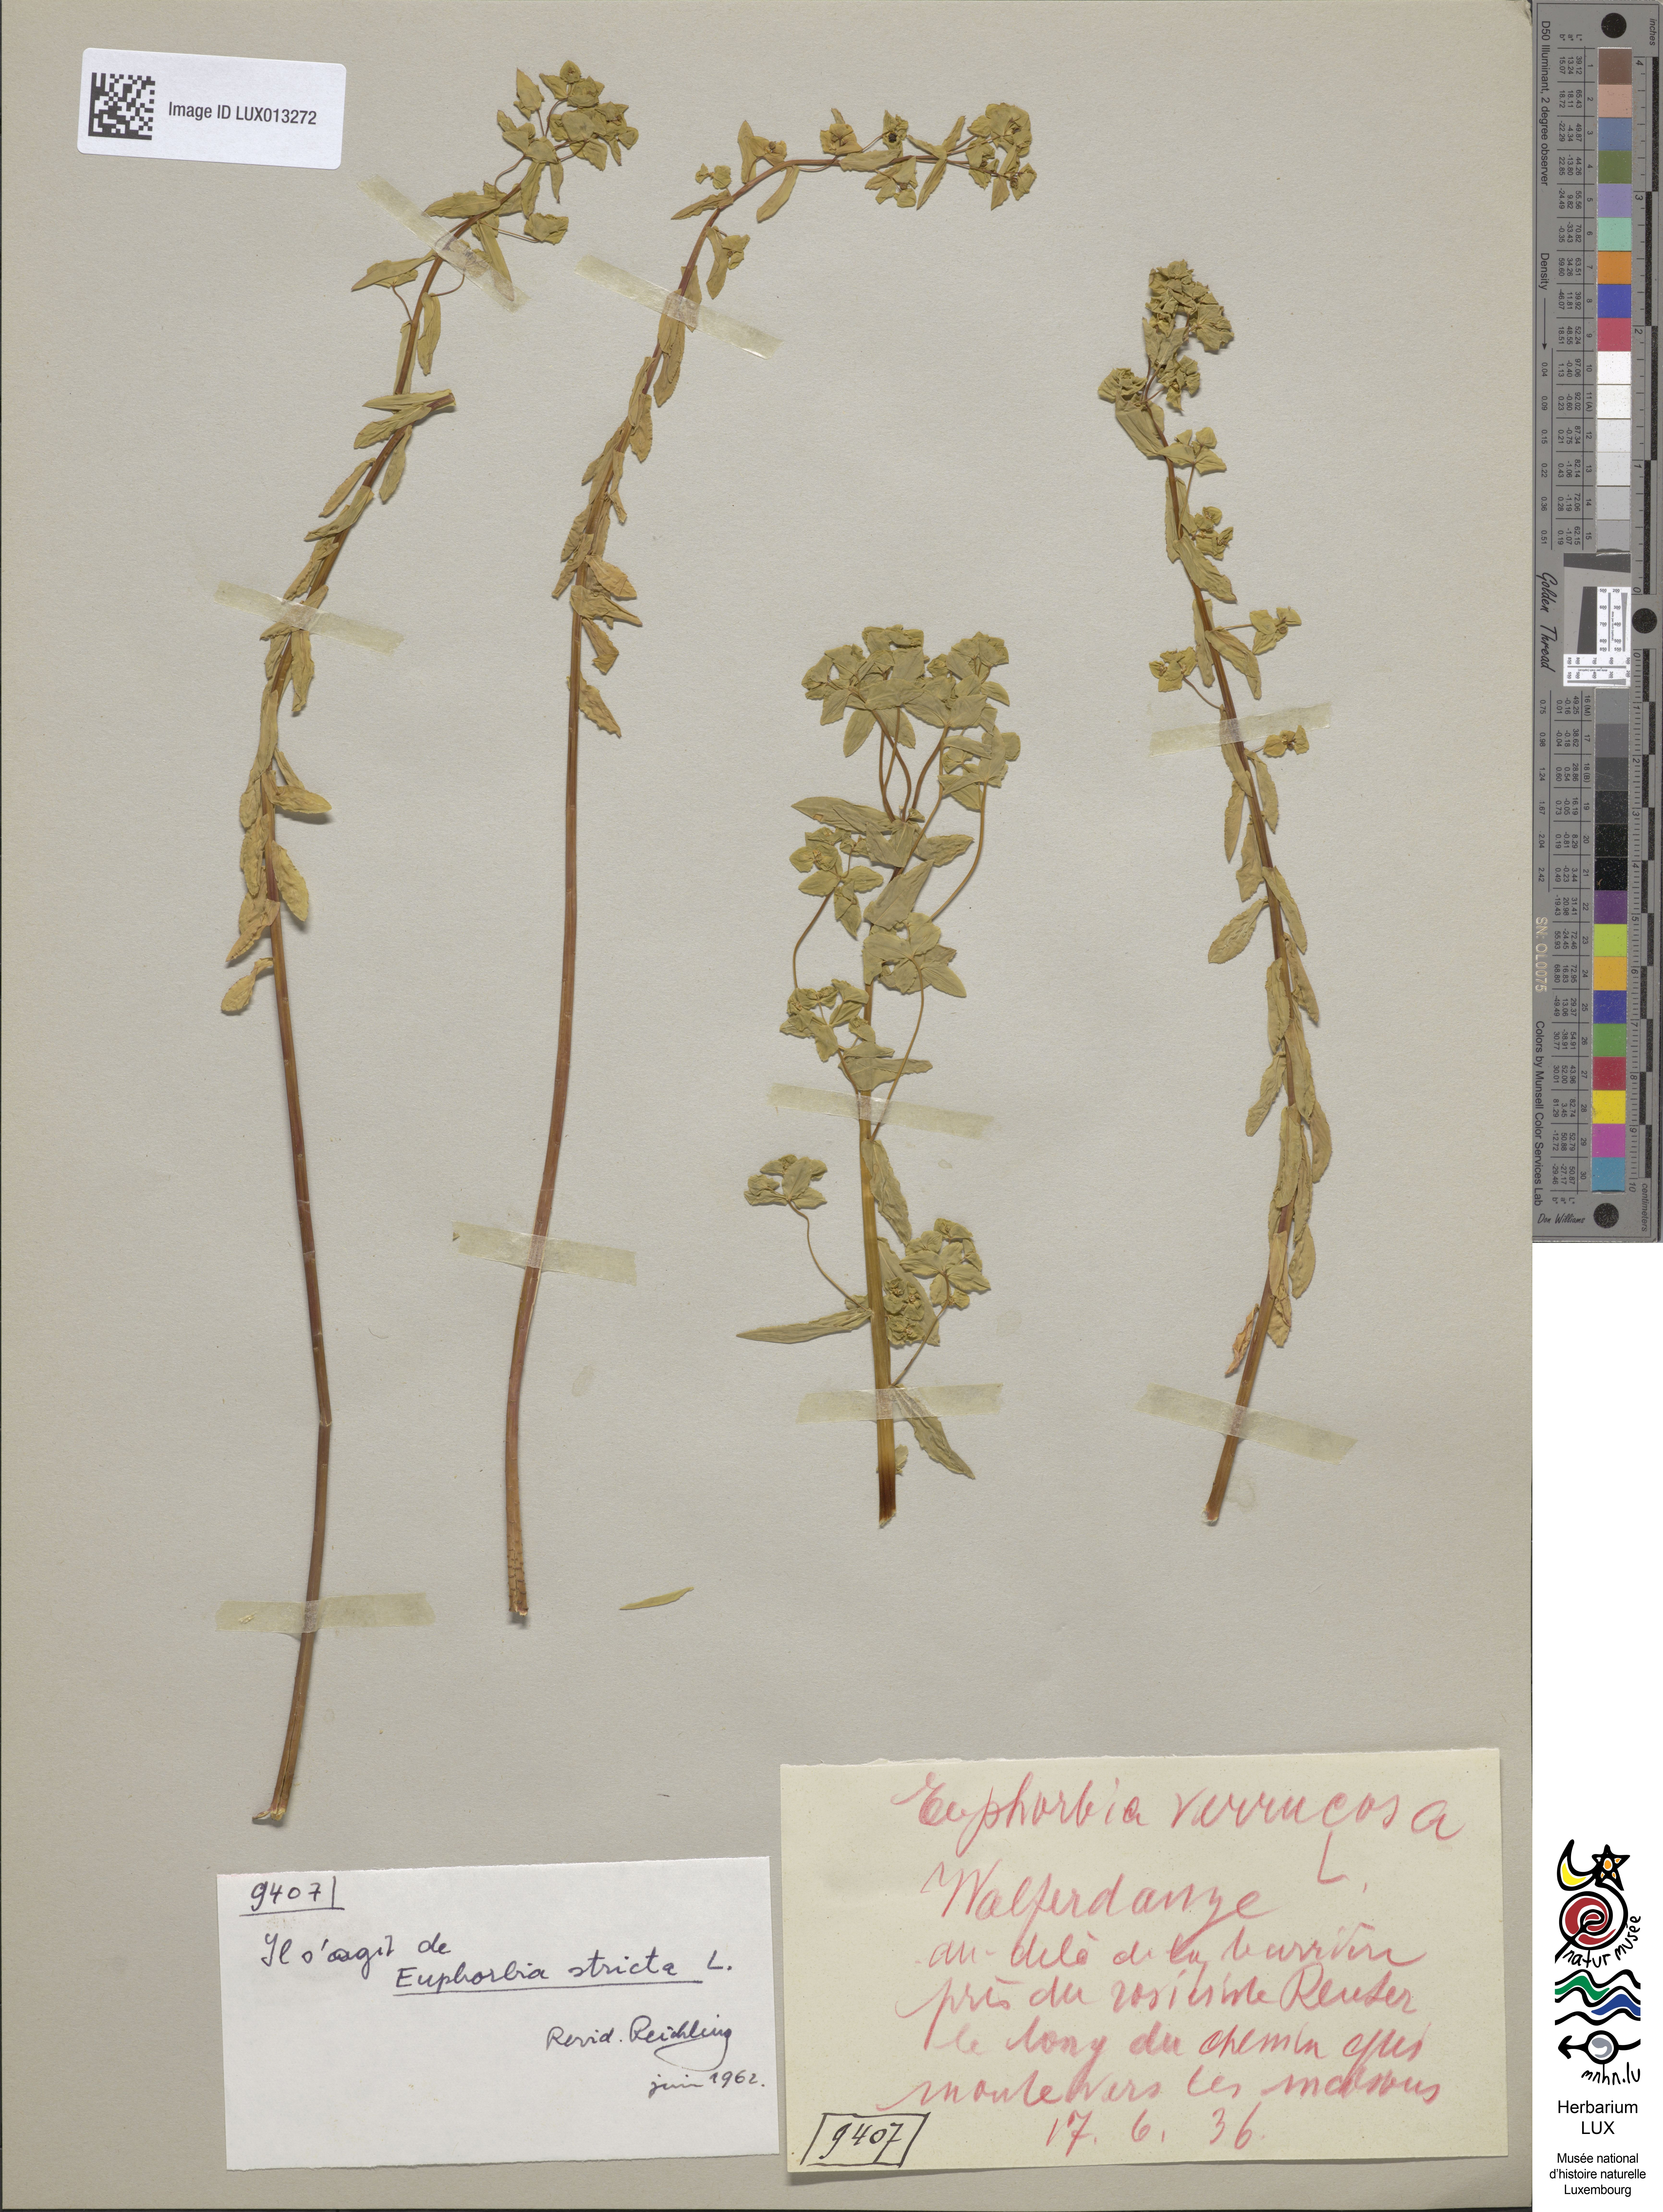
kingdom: Plantae
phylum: Tracheophyta
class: Magnoliopsida
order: Malpighiales
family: Euphorbiaceae
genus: Euphorbia
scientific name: Euphorbia stricta
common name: Upright spurge
